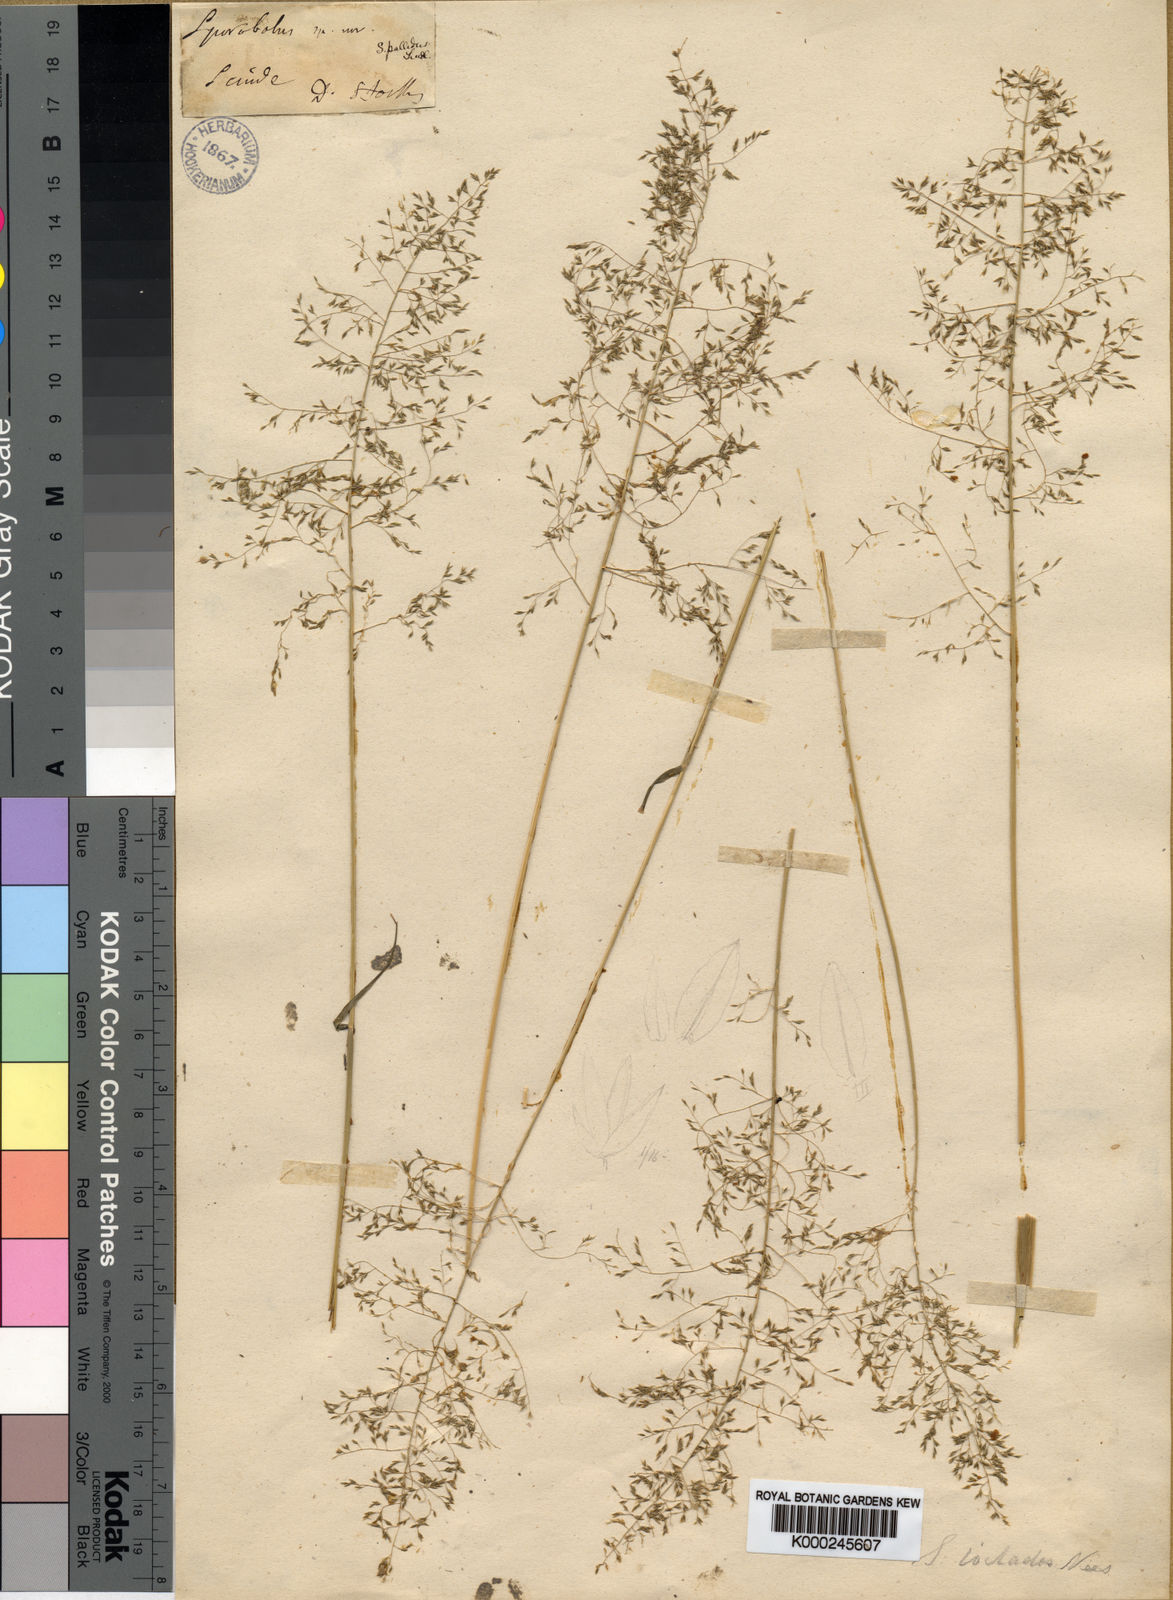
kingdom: Plantae
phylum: Tracheophyta
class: Liliopsida
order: Poales
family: Poaceae
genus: Sporobolus
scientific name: Sporobolus nervosus
